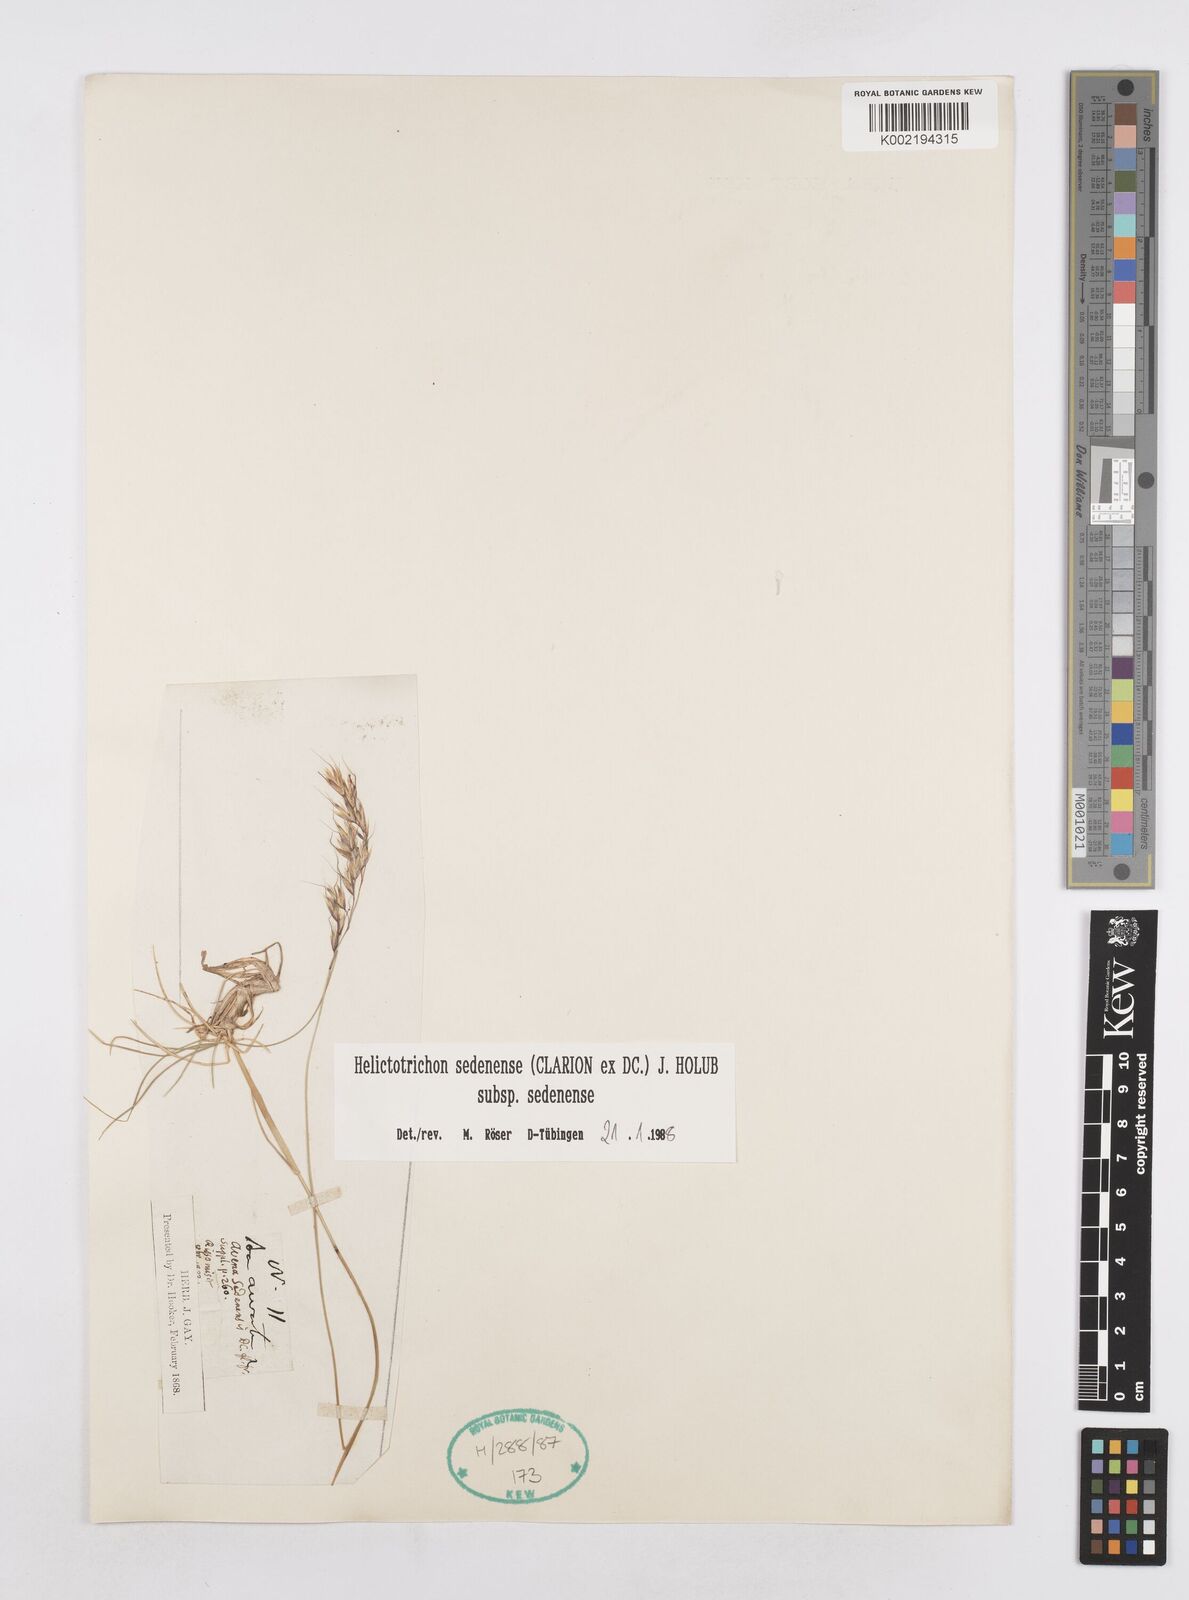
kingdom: Plantae
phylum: Tracheophyta
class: Liliopsida
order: Poales
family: Poaceae
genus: Helictotrichon
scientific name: Helictotrichon sedenense
